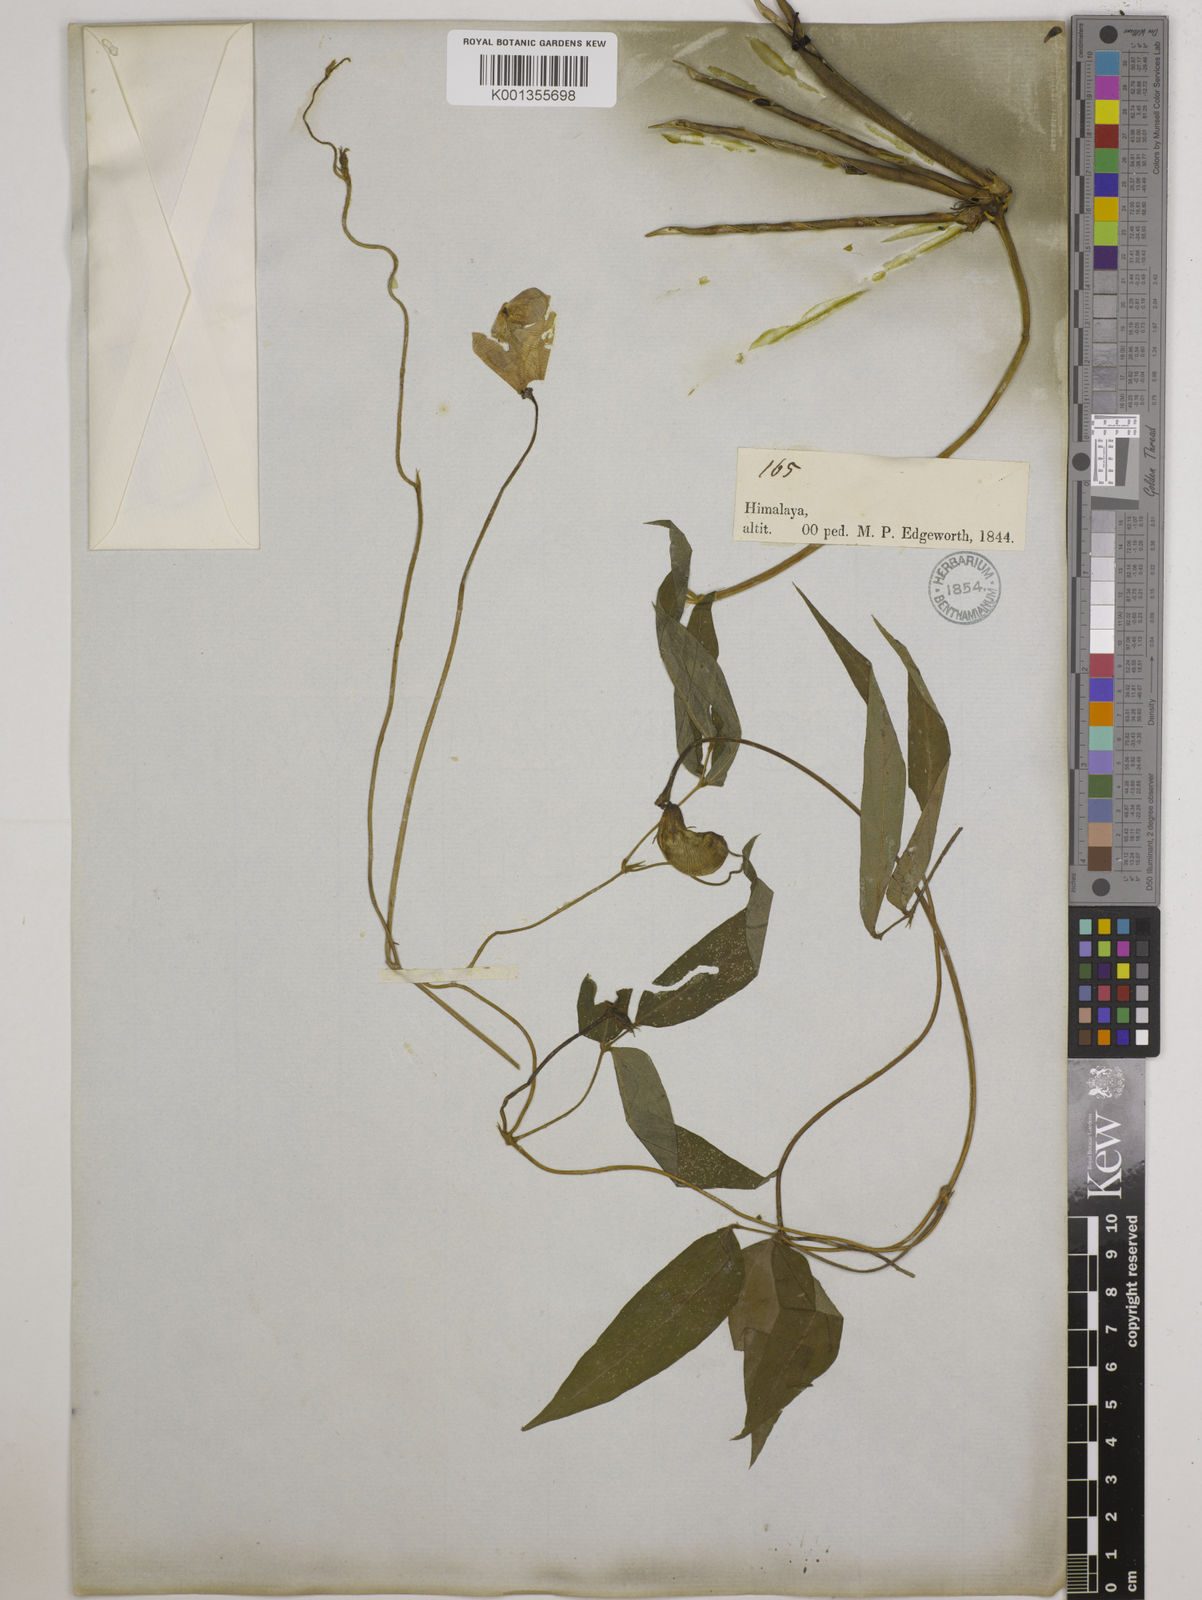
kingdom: Plantae
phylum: Tracheophyta
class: Magnoliopsida
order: Fabales
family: Fabaceae
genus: Vigna
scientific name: Vigna vexillata
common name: Zombi pea
